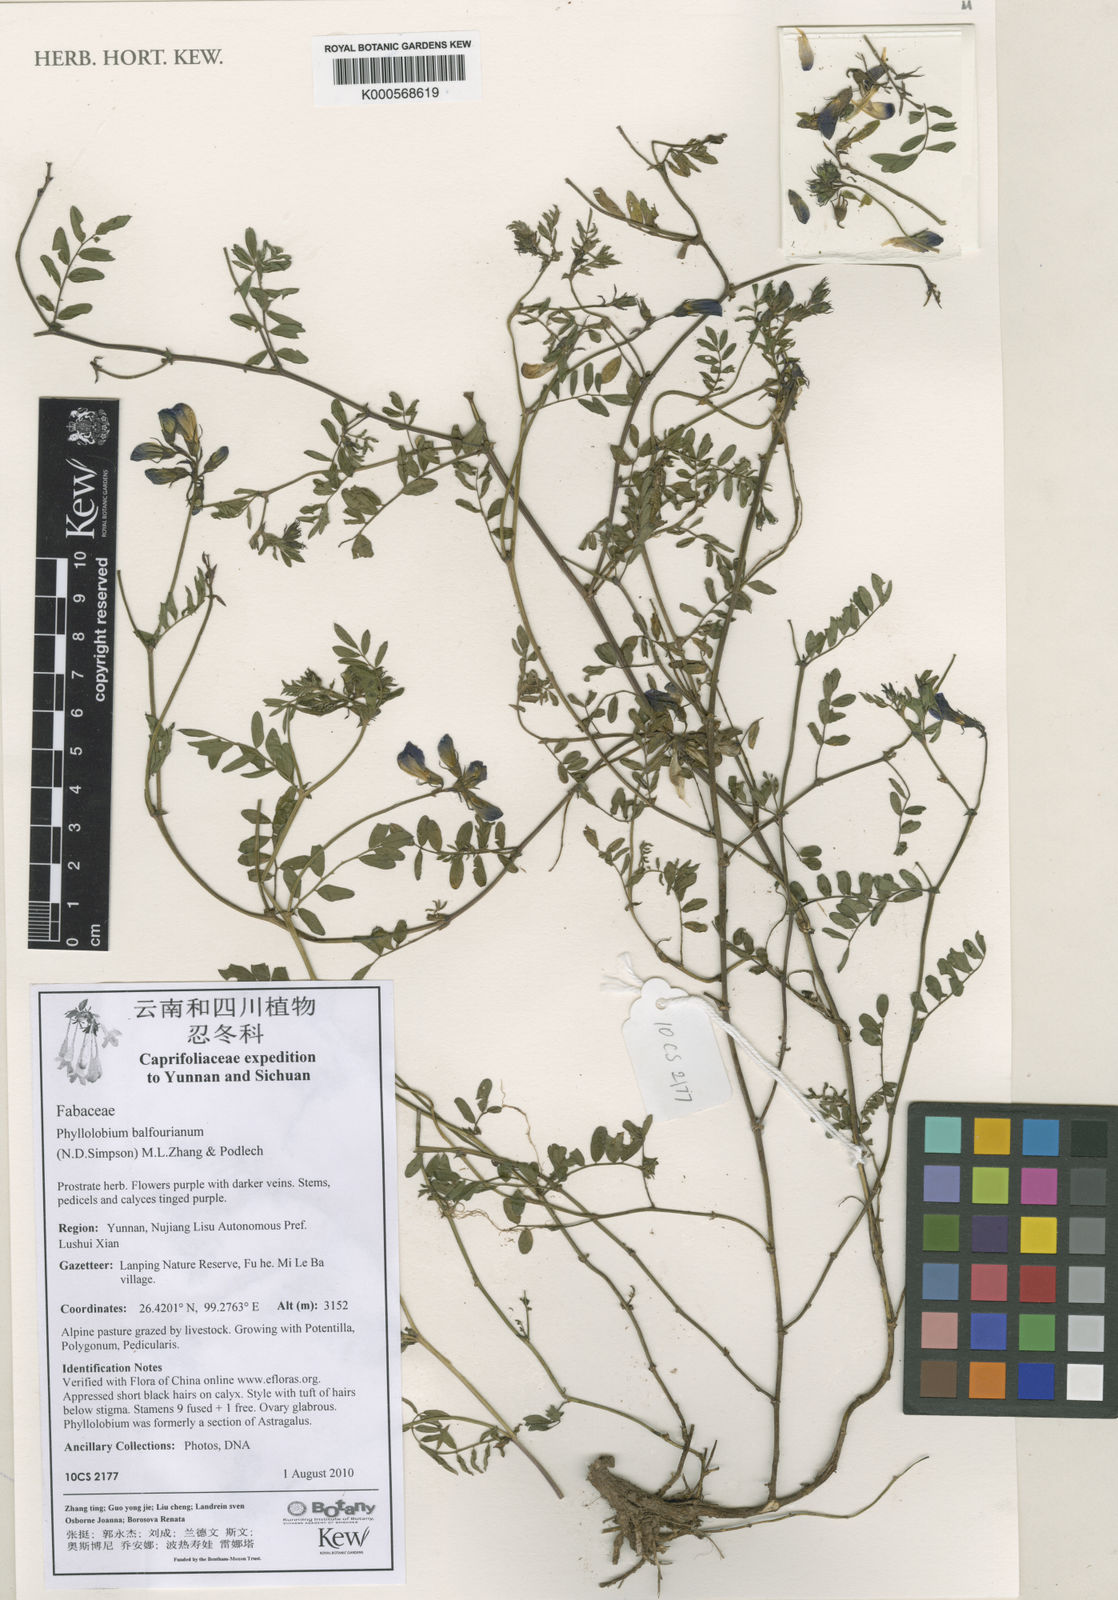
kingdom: Plantae
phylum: Tracheophyta
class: Liliopsida
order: Commelinales
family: Commelinaceae
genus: Dichorisandra
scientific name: Dichorisandra
